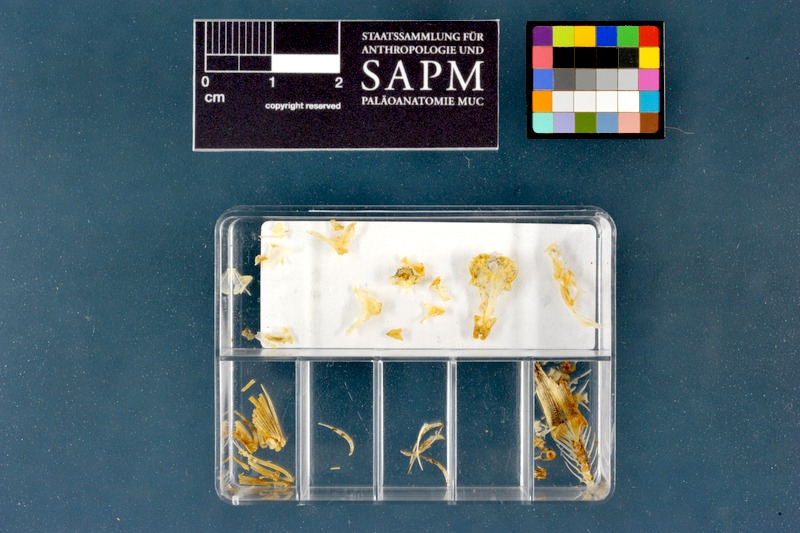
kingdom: Animalia
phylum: Chordata
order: Cypriniformes
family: Nemacheilidae
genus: Barbatula
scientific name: Barbatula barbatula
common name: Stone loach
